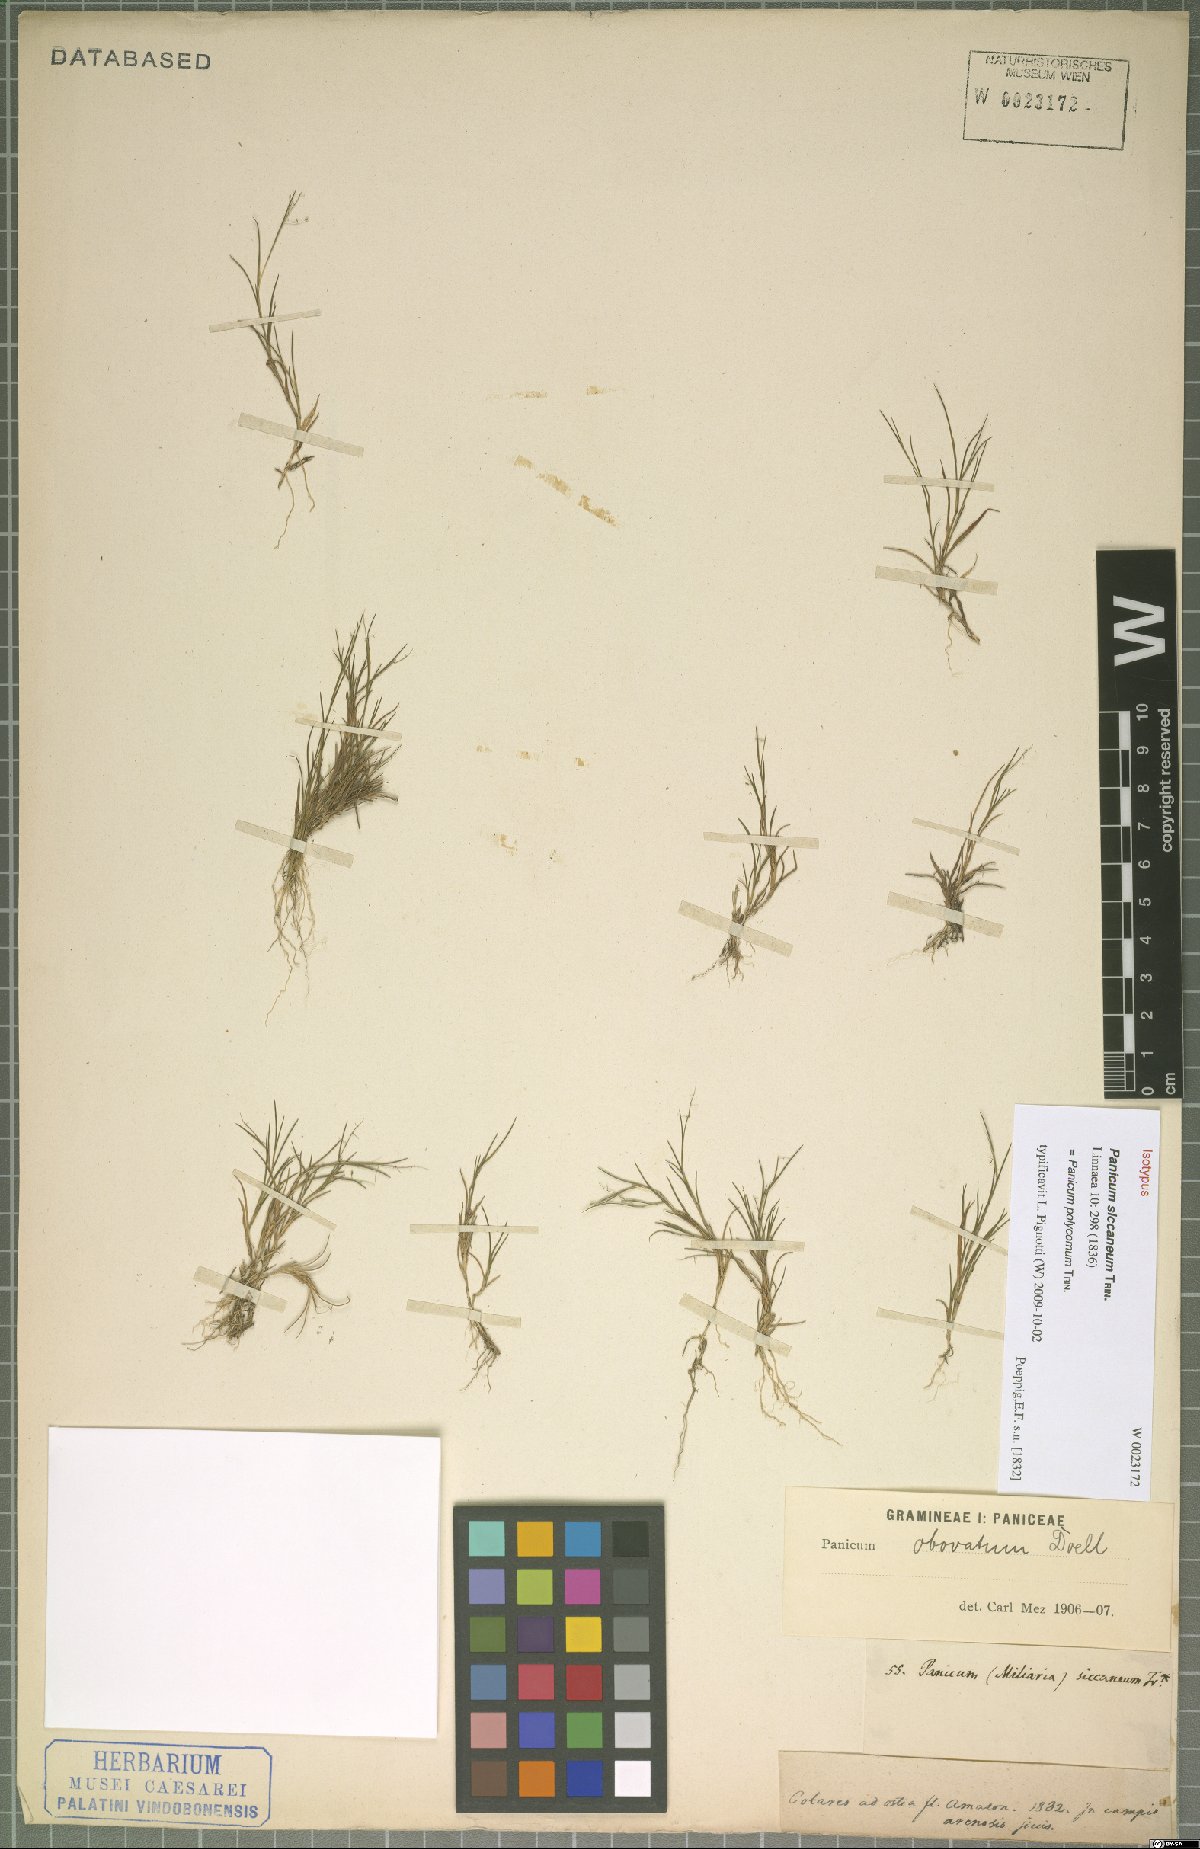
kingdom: Plantae
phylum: Tracheophyta
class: Liliopsida
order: Poales
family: Poaceae
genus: Trichanthecium
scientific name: Trichanthecium polycomum
